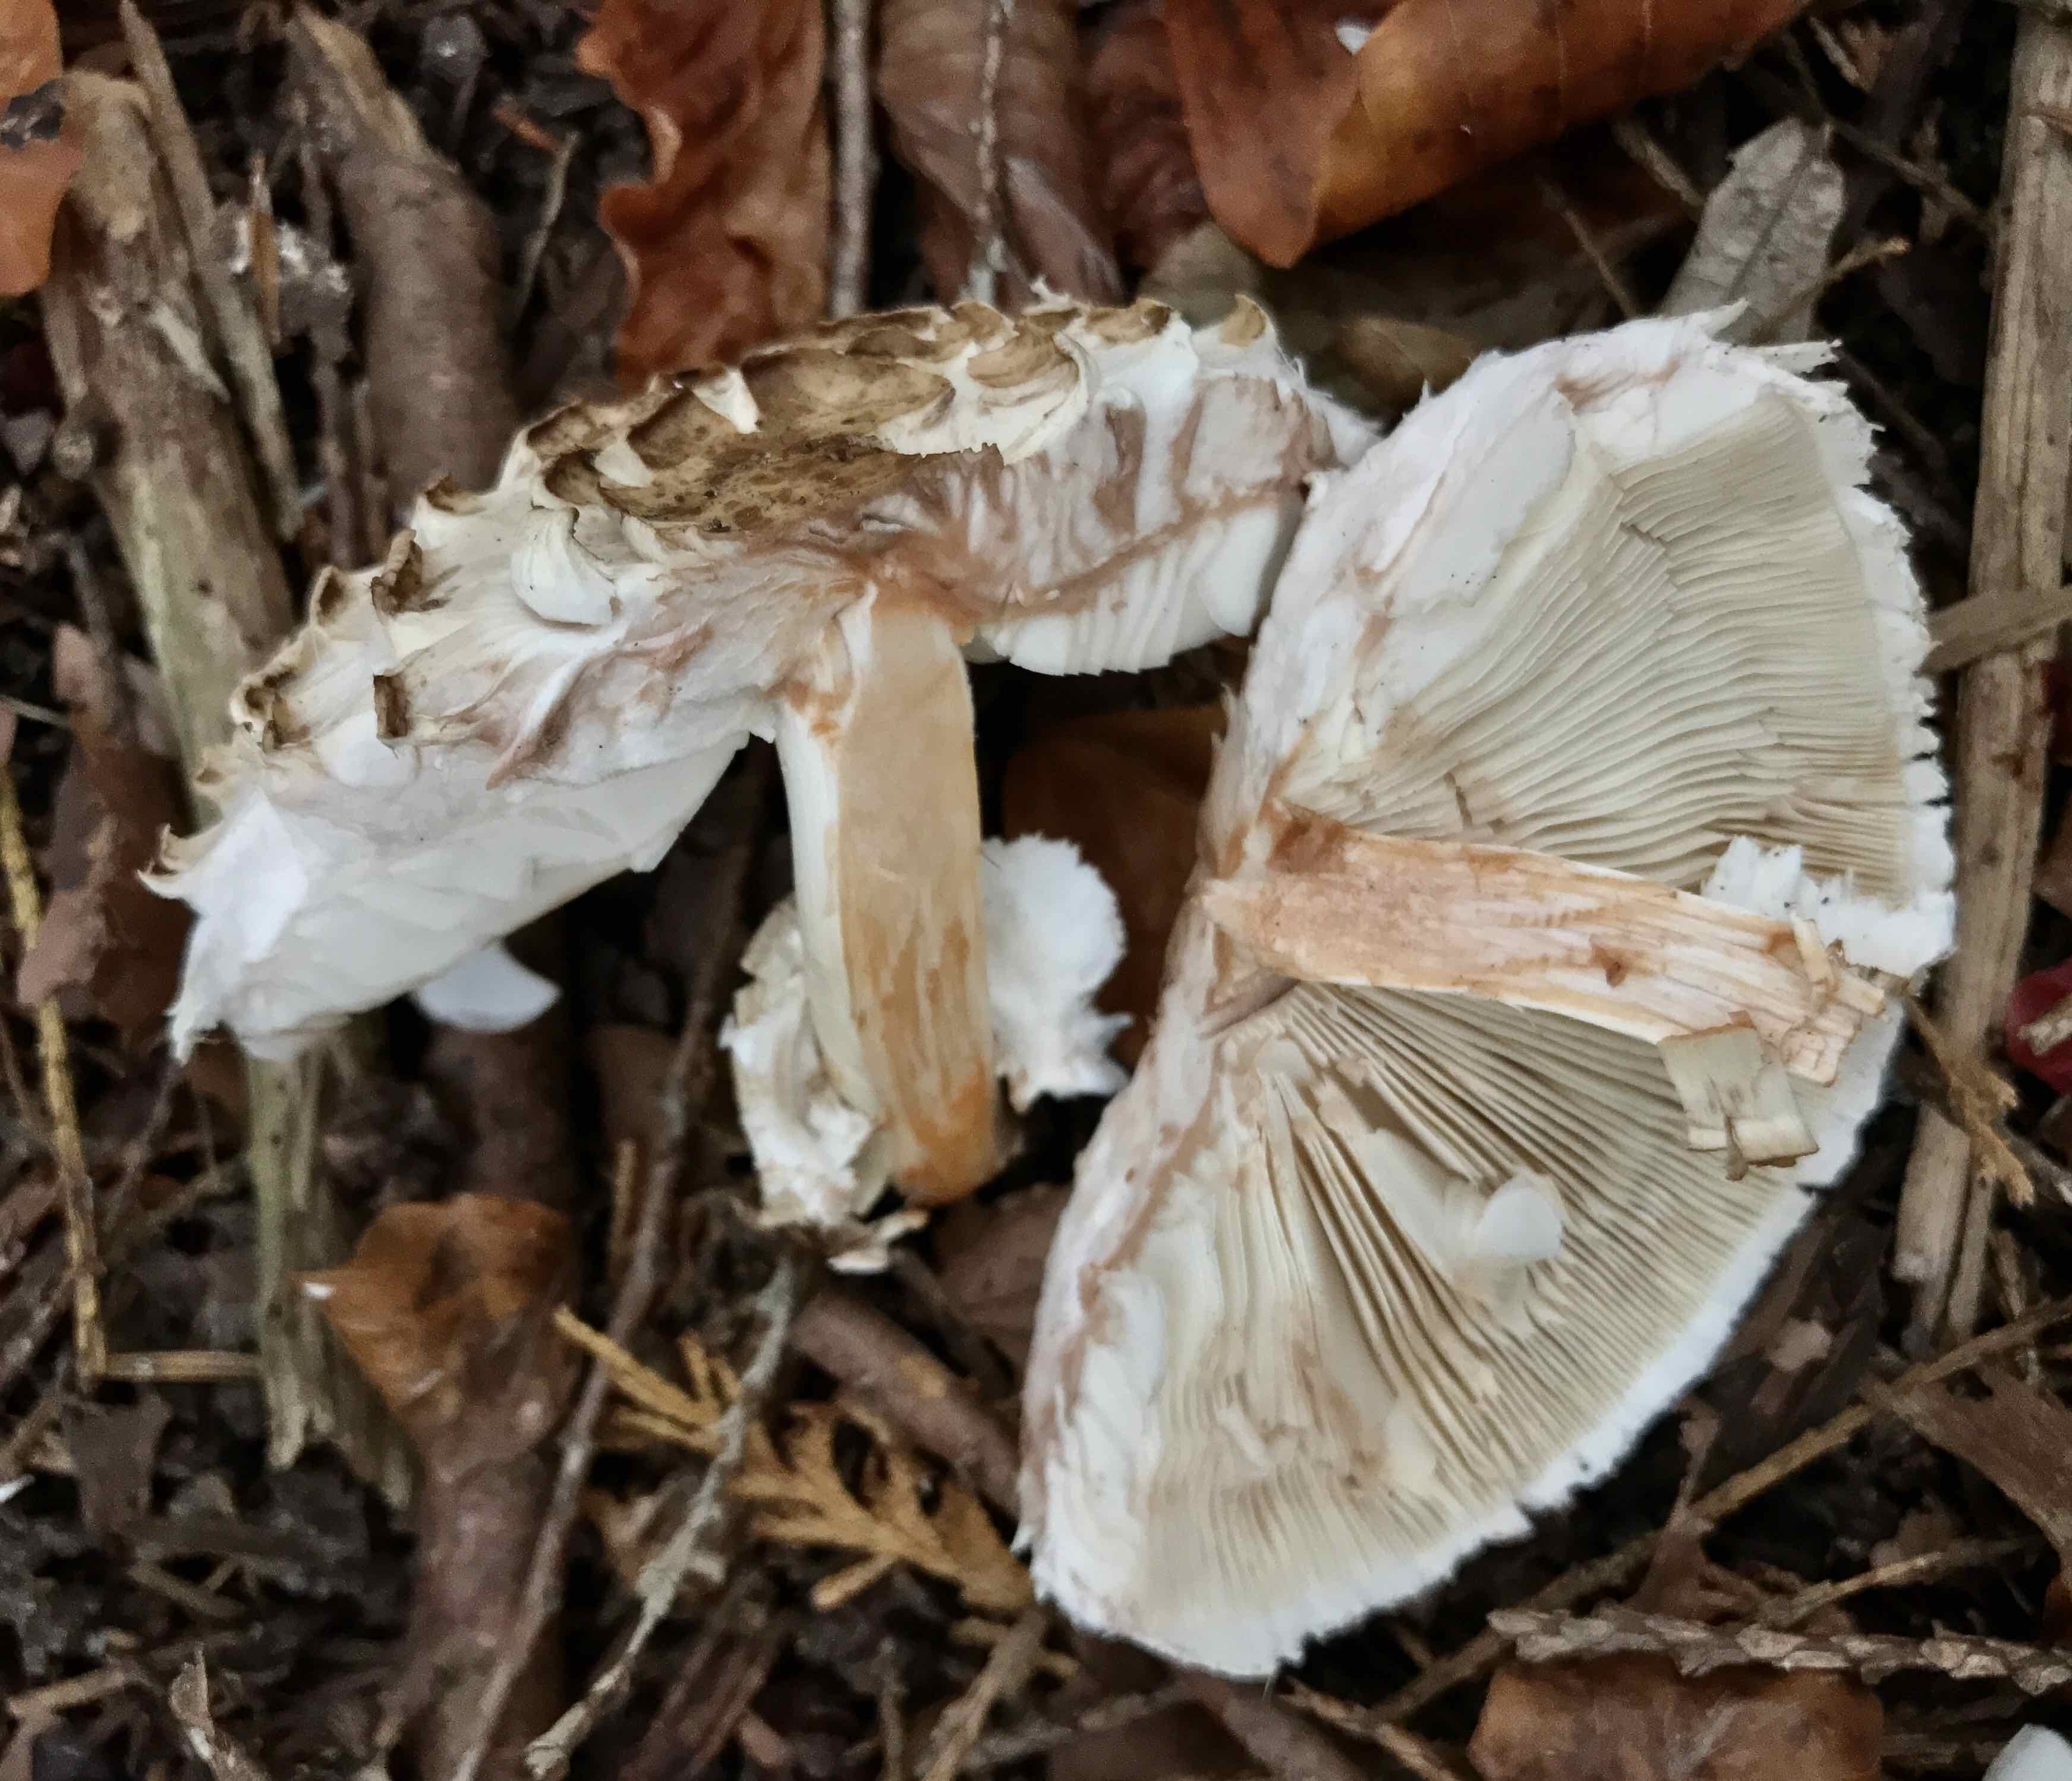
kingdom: Fungi
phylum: Basidiomycota
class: Agaricomycetes
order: Agaricales
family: Agaricaceae
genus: Chlorophyllum
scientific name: Chlorophyllum rhacodes
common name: ægte rabarberhat
